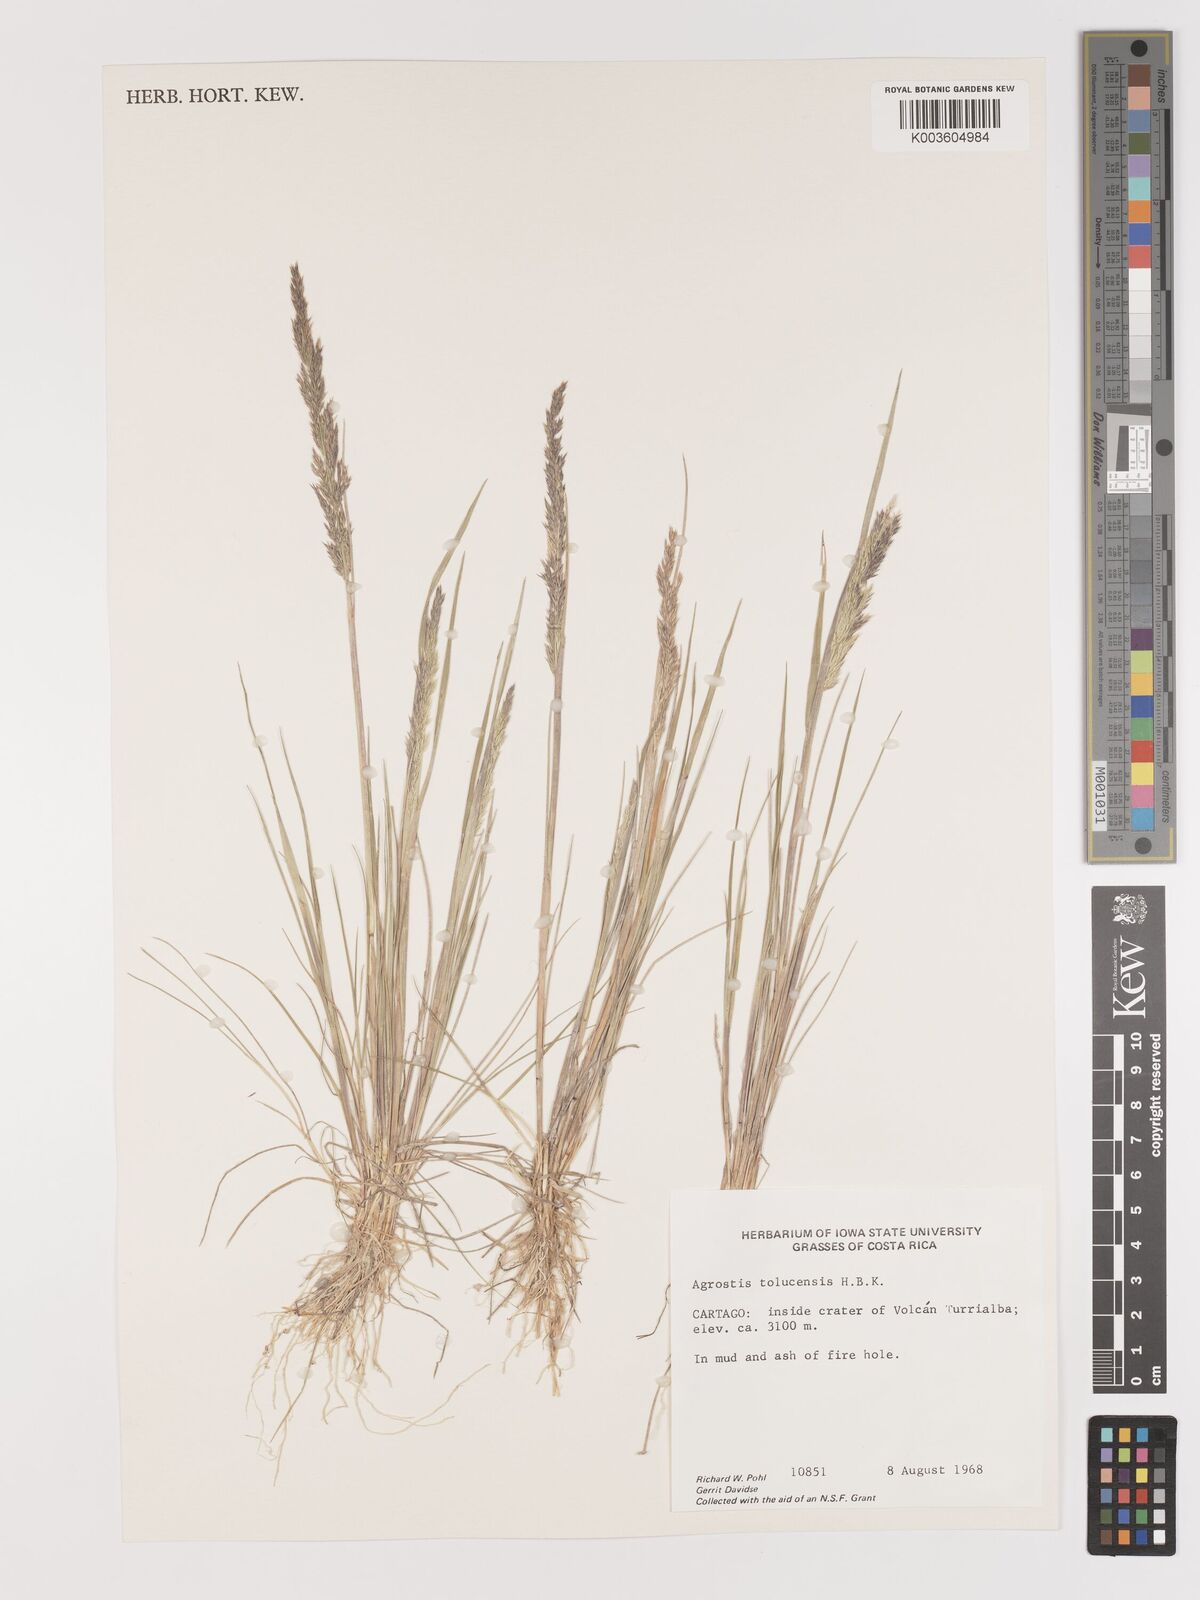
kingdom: Plantae
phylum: Tracheophyta
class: Liliopsida
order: Poales
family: Poaceae
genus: Agrostis
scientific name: Agrostis tolucensis
